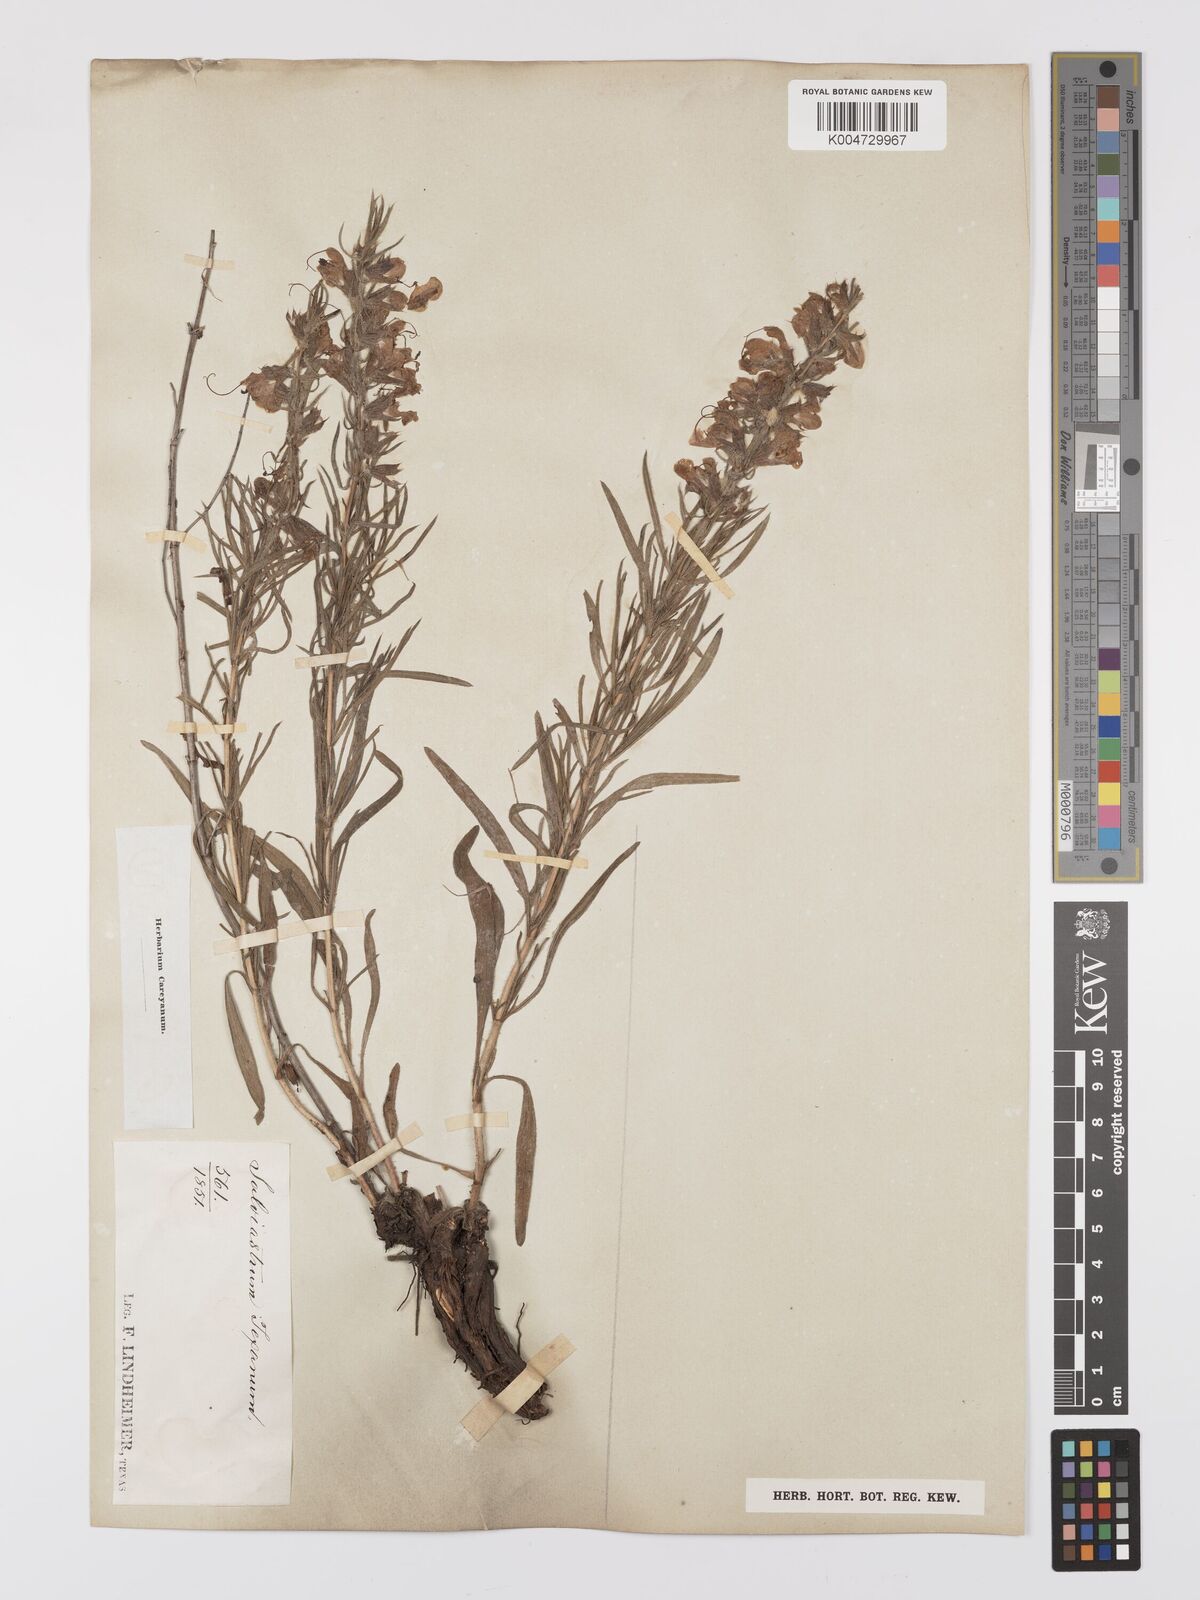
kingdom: Plantae
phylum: Tracheophyta
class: Magnoliopsida
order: Lamiales
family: Lamiaceae
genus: Salvia
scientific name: Salvia texana
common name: Texas sage
